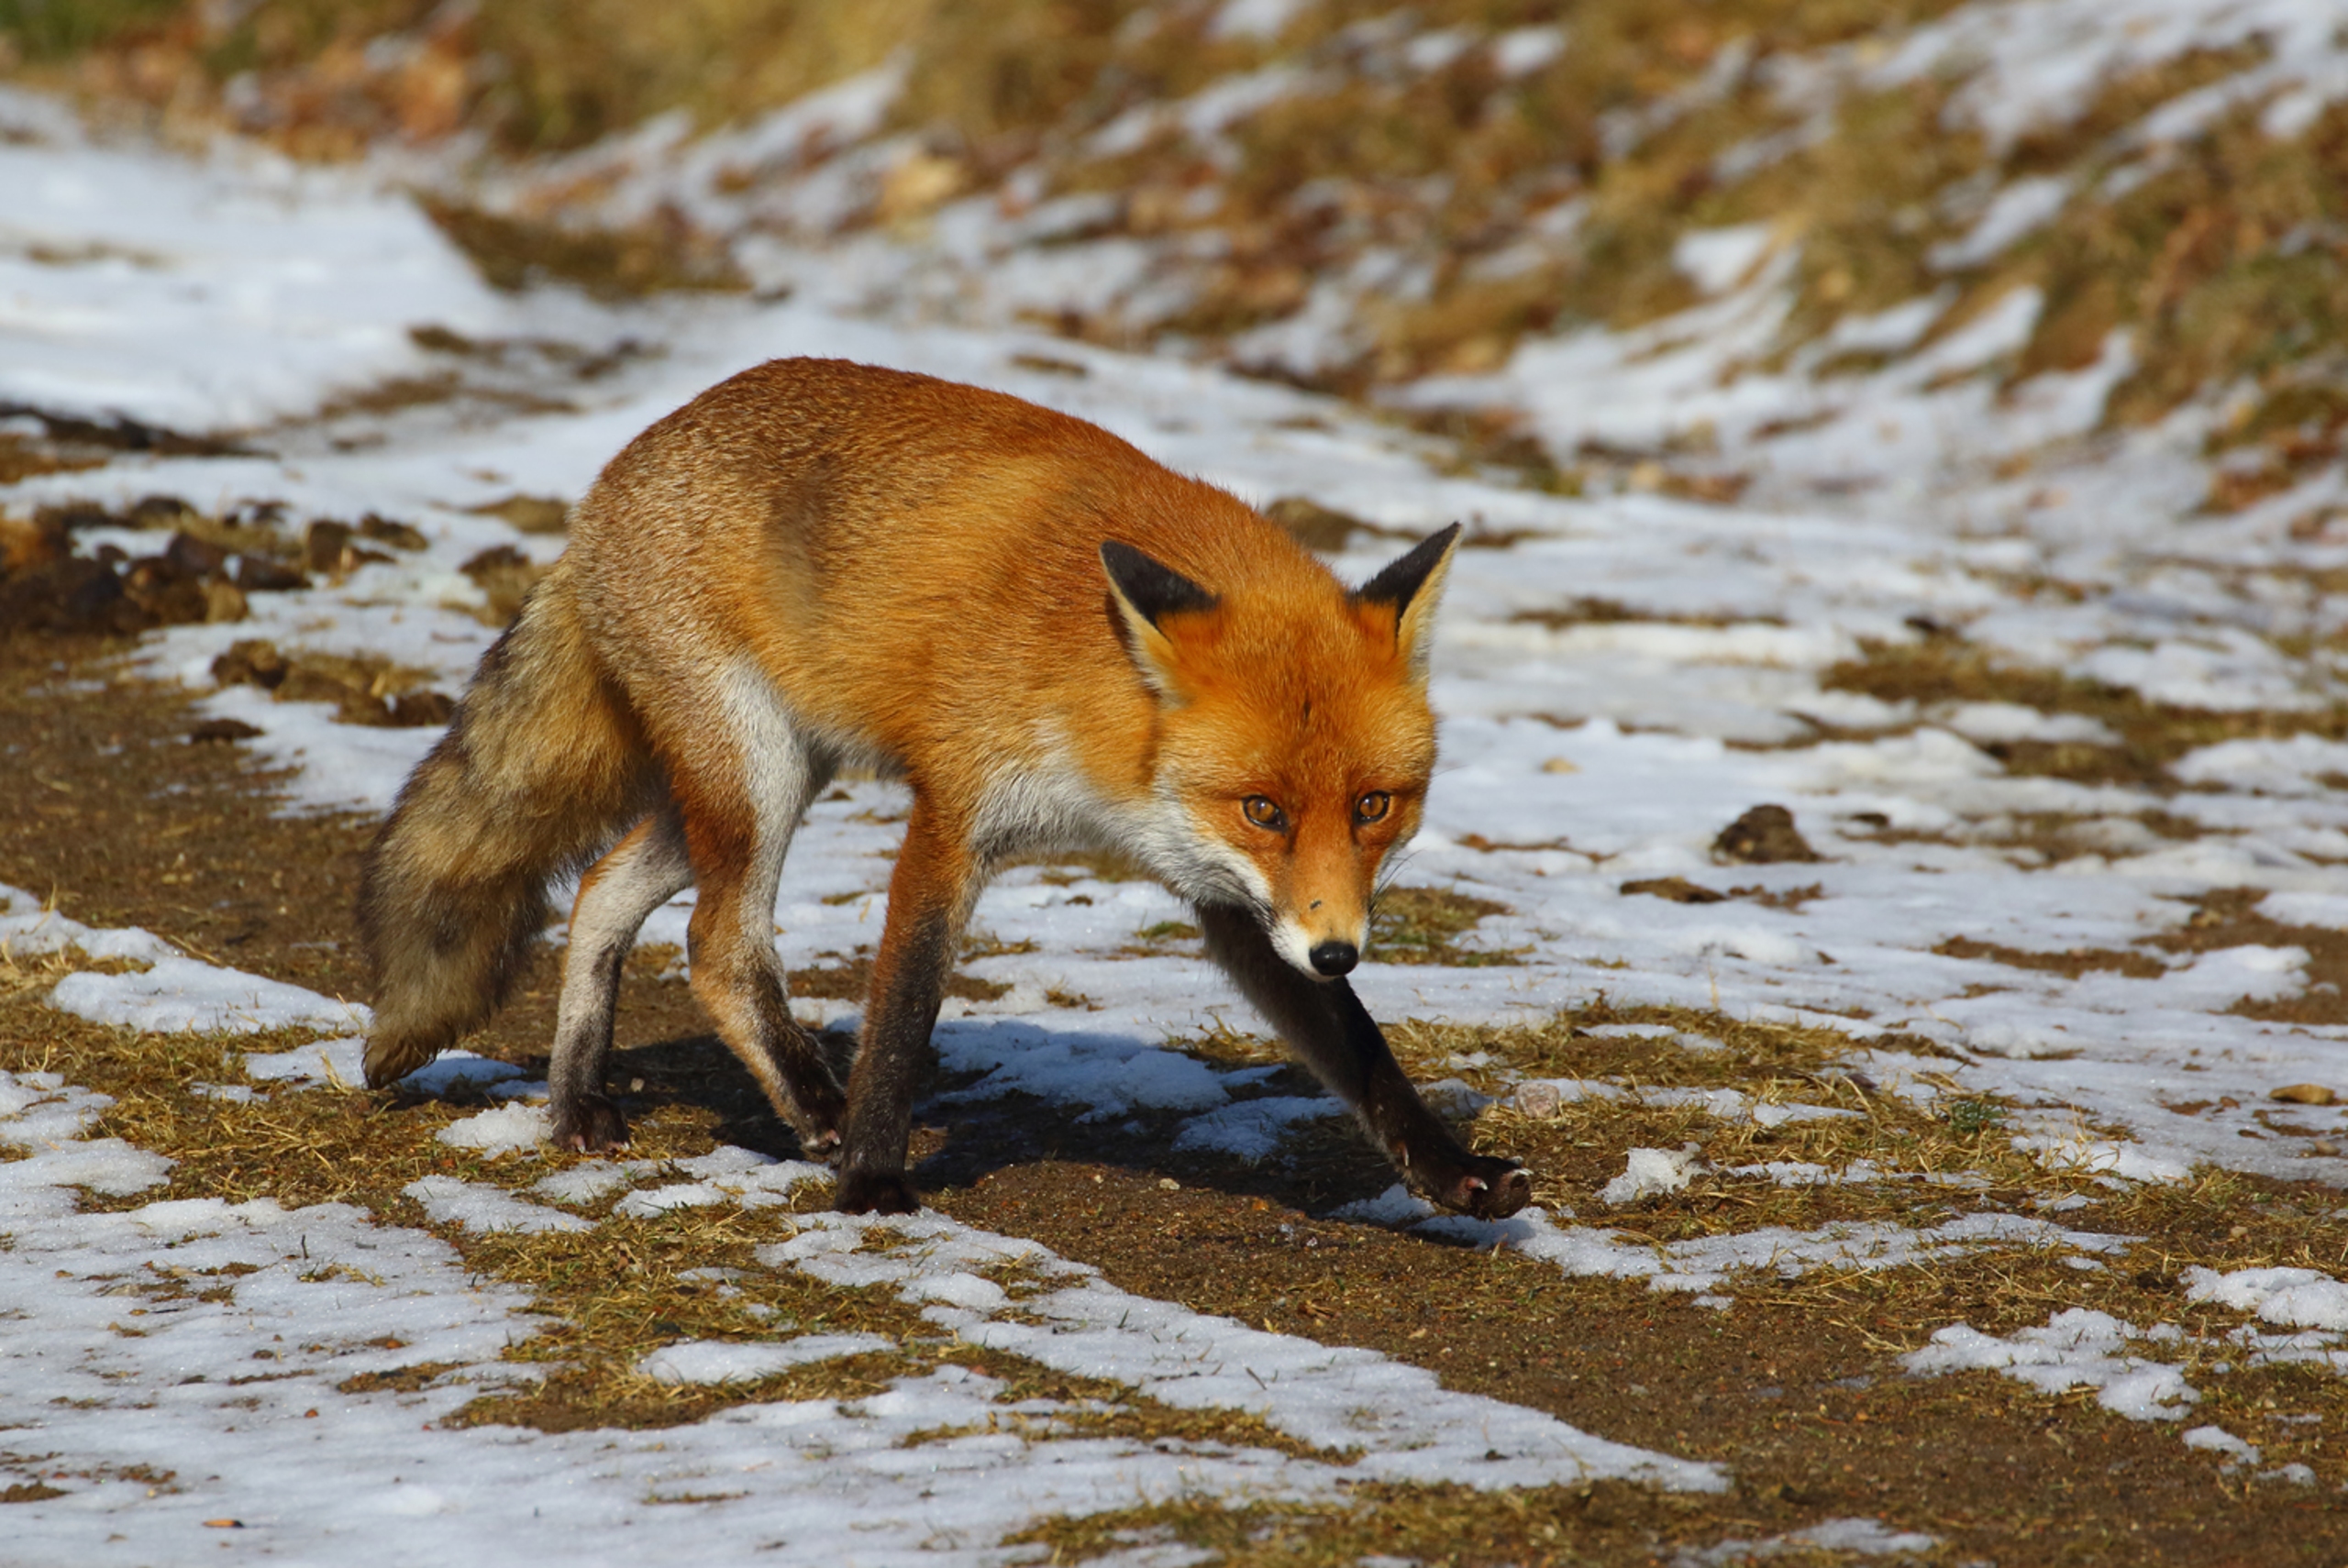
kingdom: Animalia
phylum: Chordata
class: Mammalia
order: Carnivora
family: Canidae
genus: Vulpes
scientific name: Vulpes vulpes
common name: Ræv
